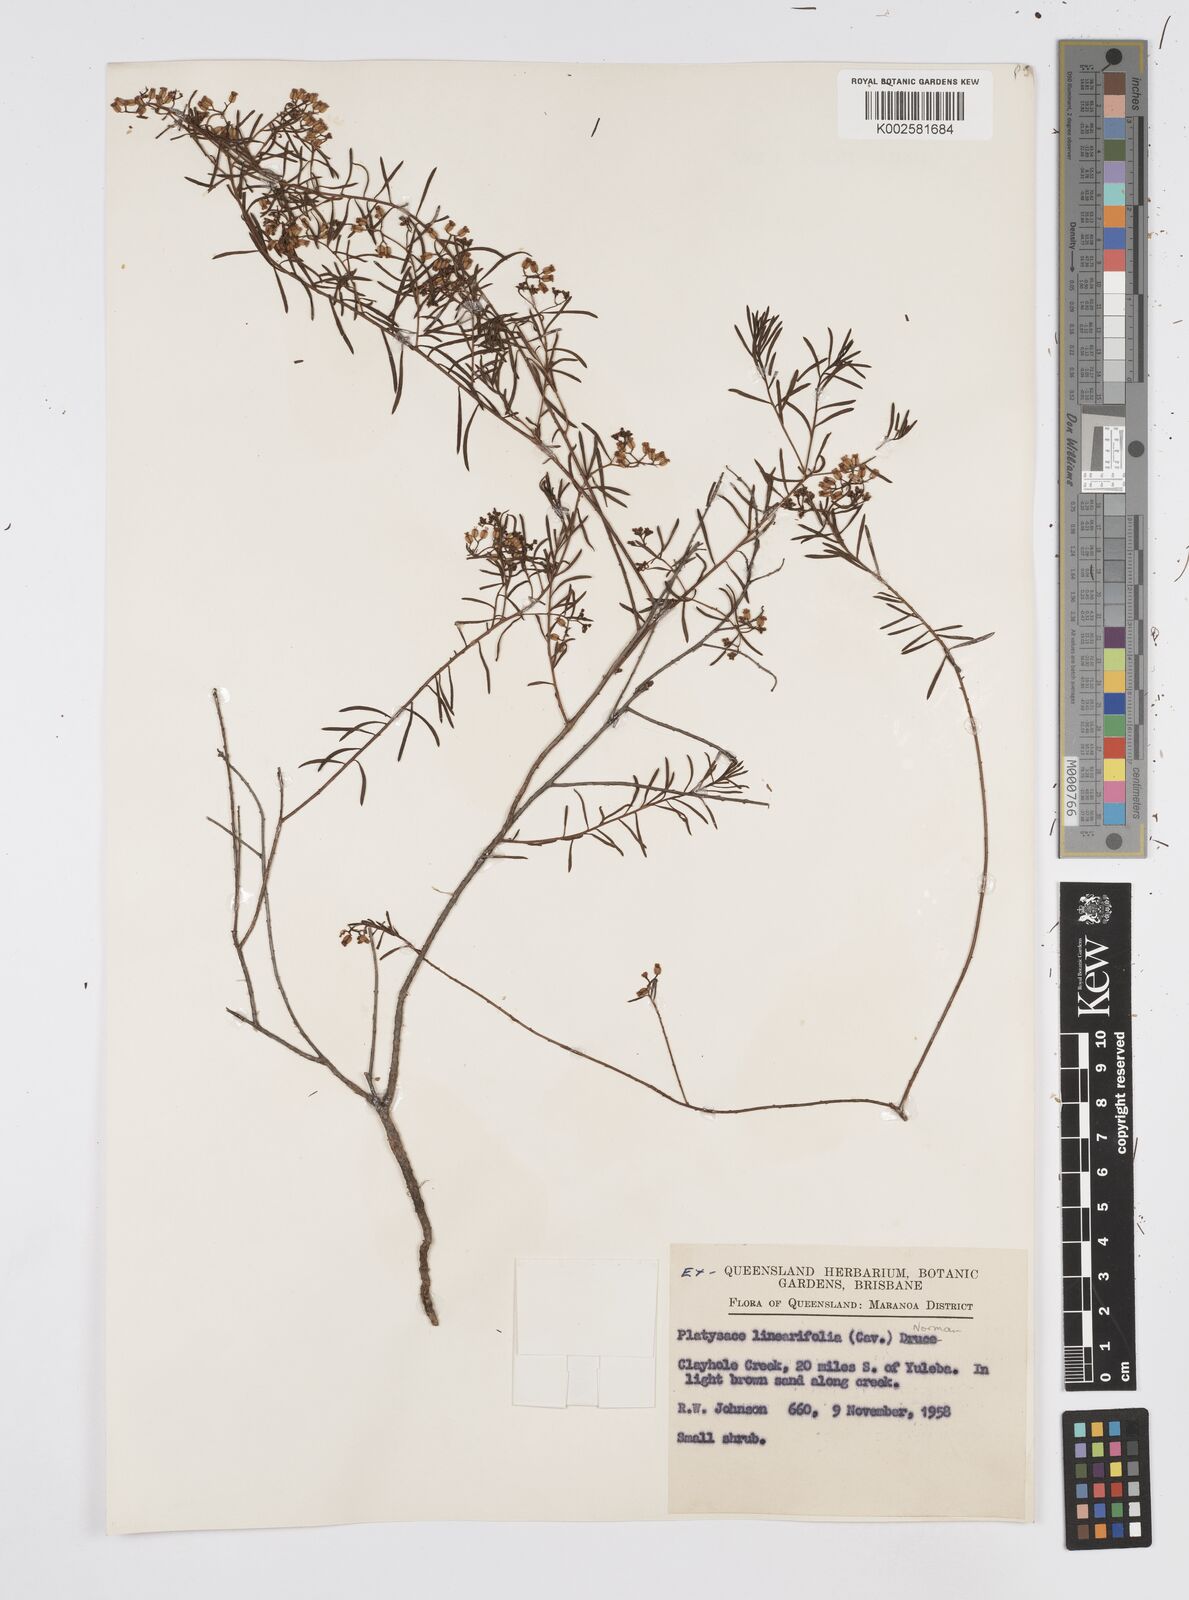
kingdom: Plantae
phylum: Tracheophyta
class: Magnoliopsida
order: Apiales
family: Apiaceae
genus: Platysace
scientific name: Platysace linearifolia
